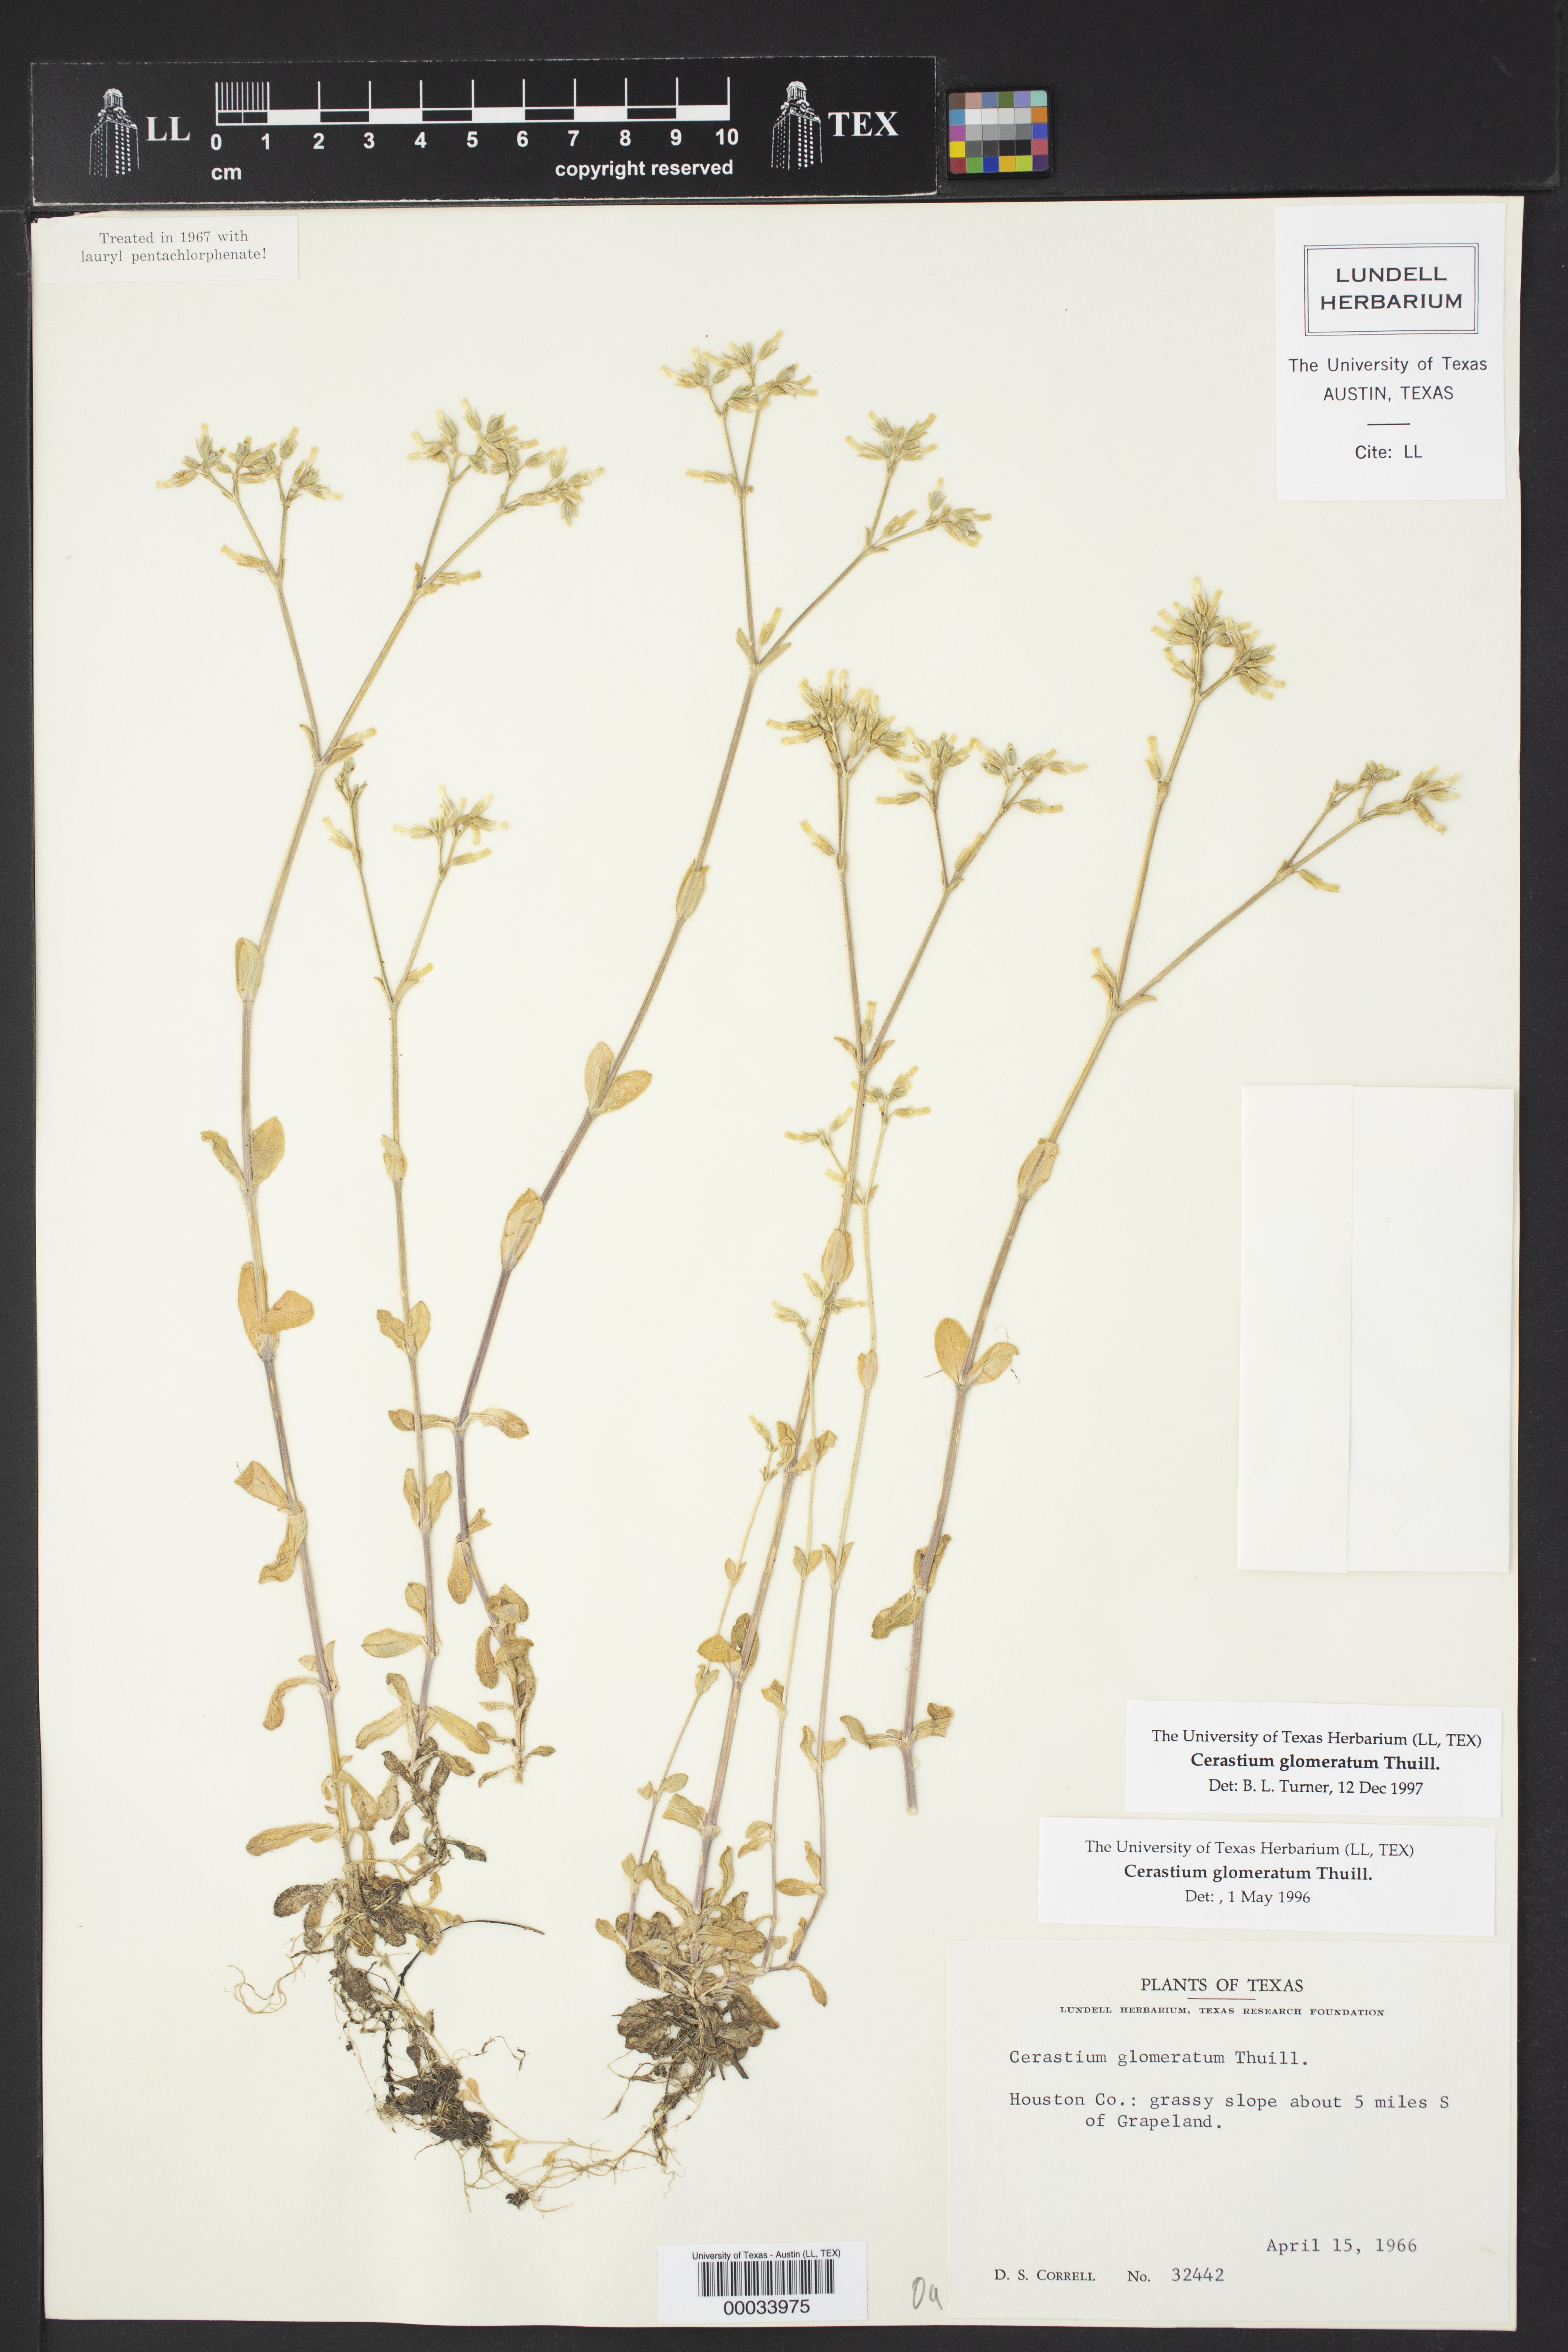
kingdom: Plantae
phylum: Tracheophyta
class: Magnoliopsida
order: Caryophyllales
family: Caryophyllaceae
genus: Cerastium
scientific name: Cerastium glomeratum
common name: Sticky chickweed
